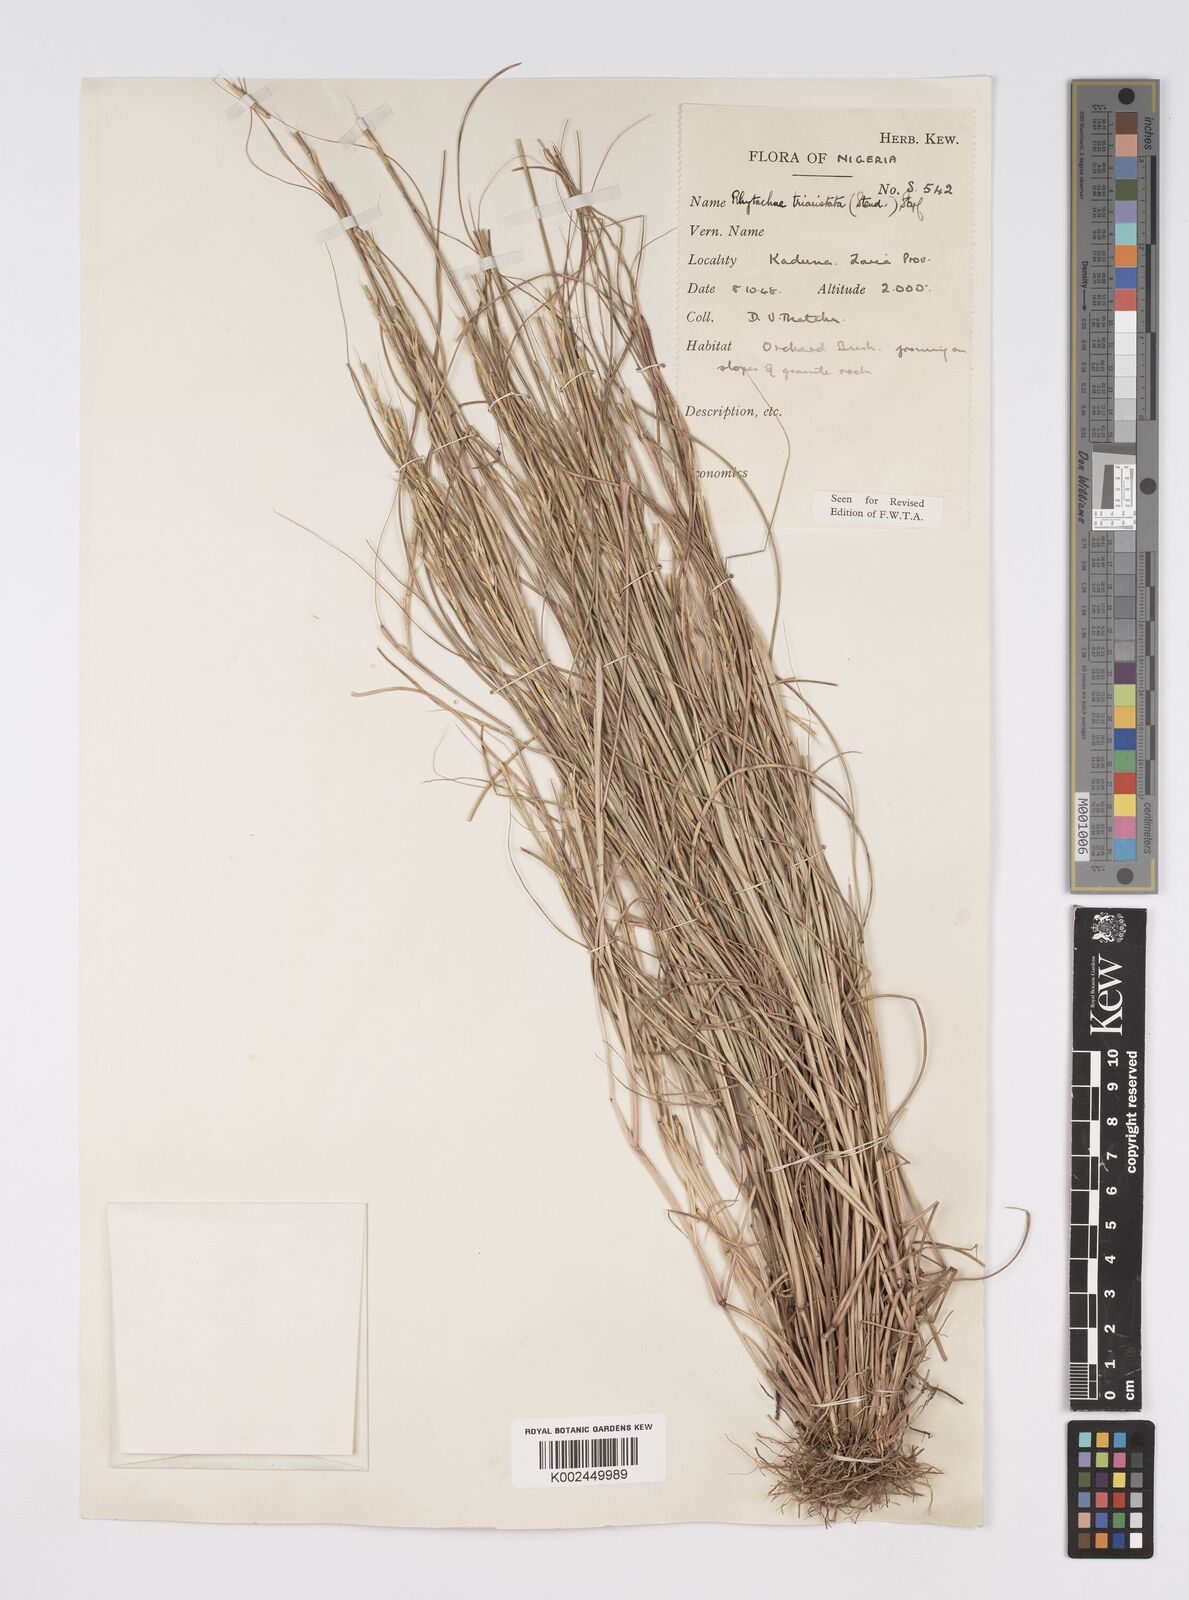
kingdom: Plantae
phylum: Tracheophyta
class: Liliopsida
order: Poales
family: Poaceae
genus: Rhytachne
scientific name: Rhytachne triaristata
